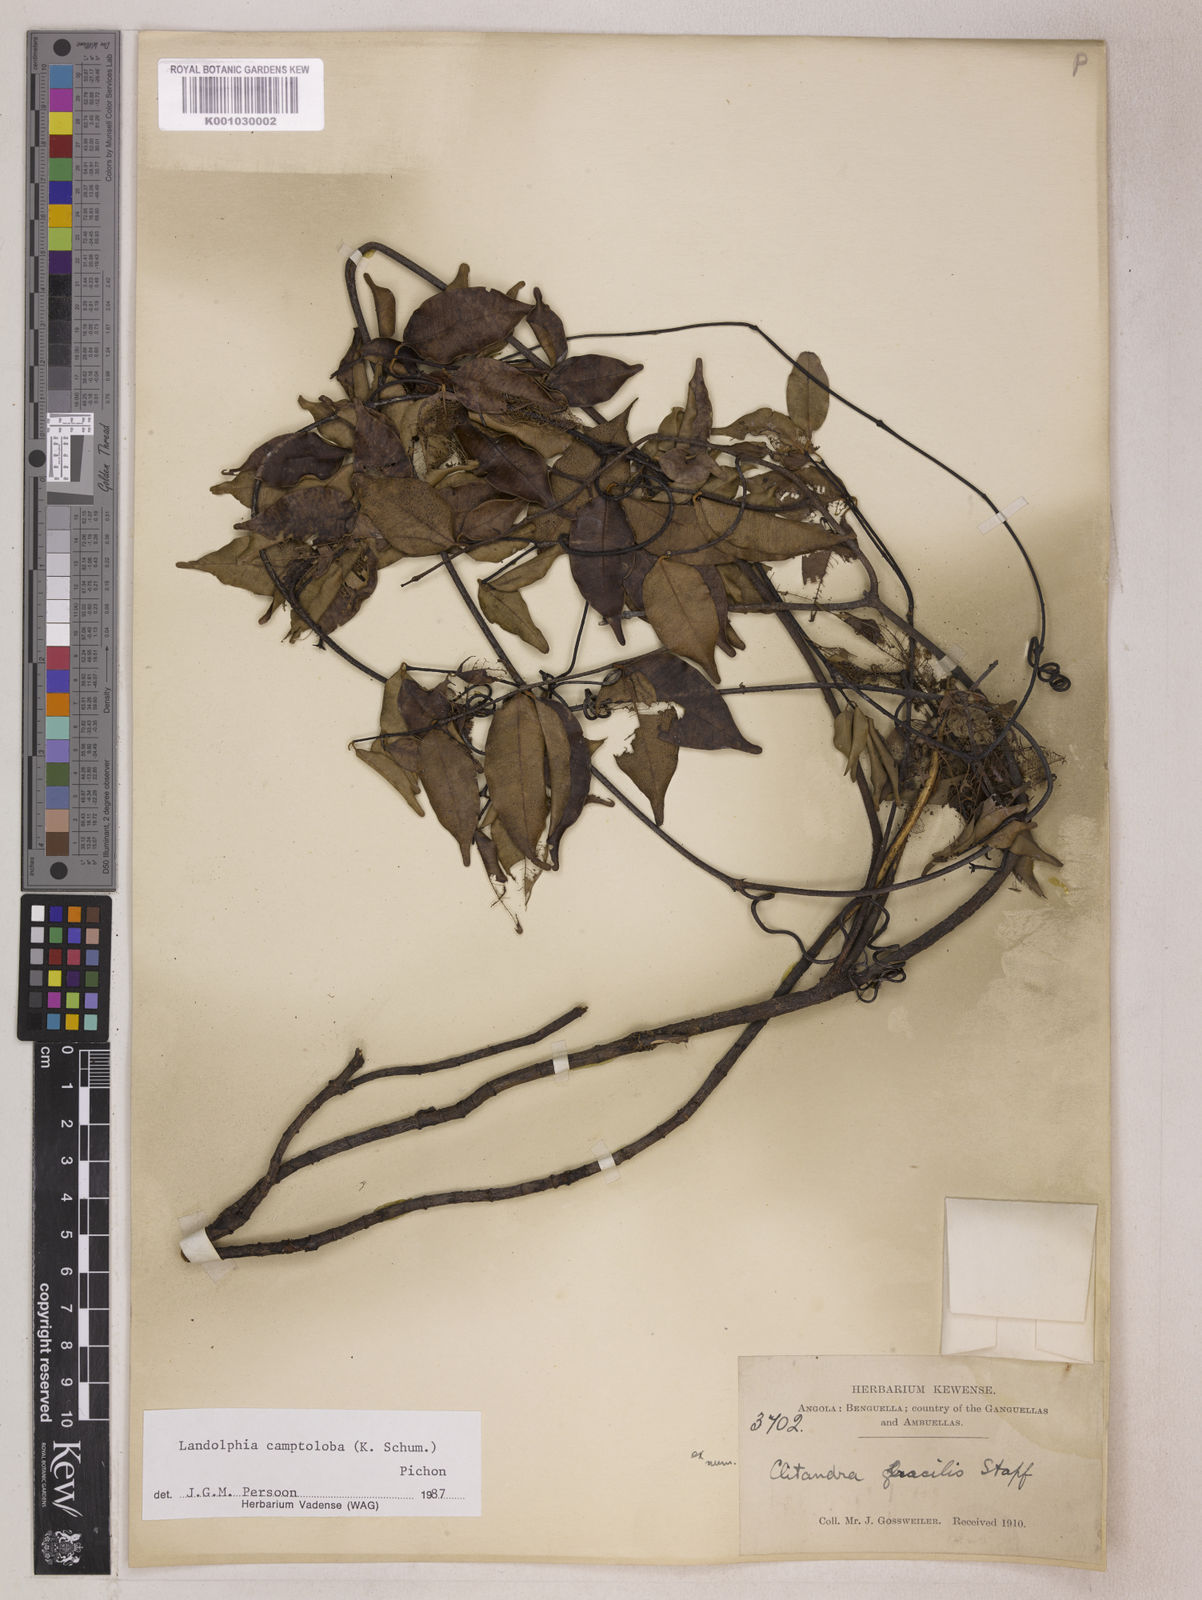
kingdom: Plantae
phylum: Tracheophyta
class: Magnoliopsida
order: Gentianales
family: Apocynaceae
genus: Landolphia
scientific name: Landolphia camptoloba
